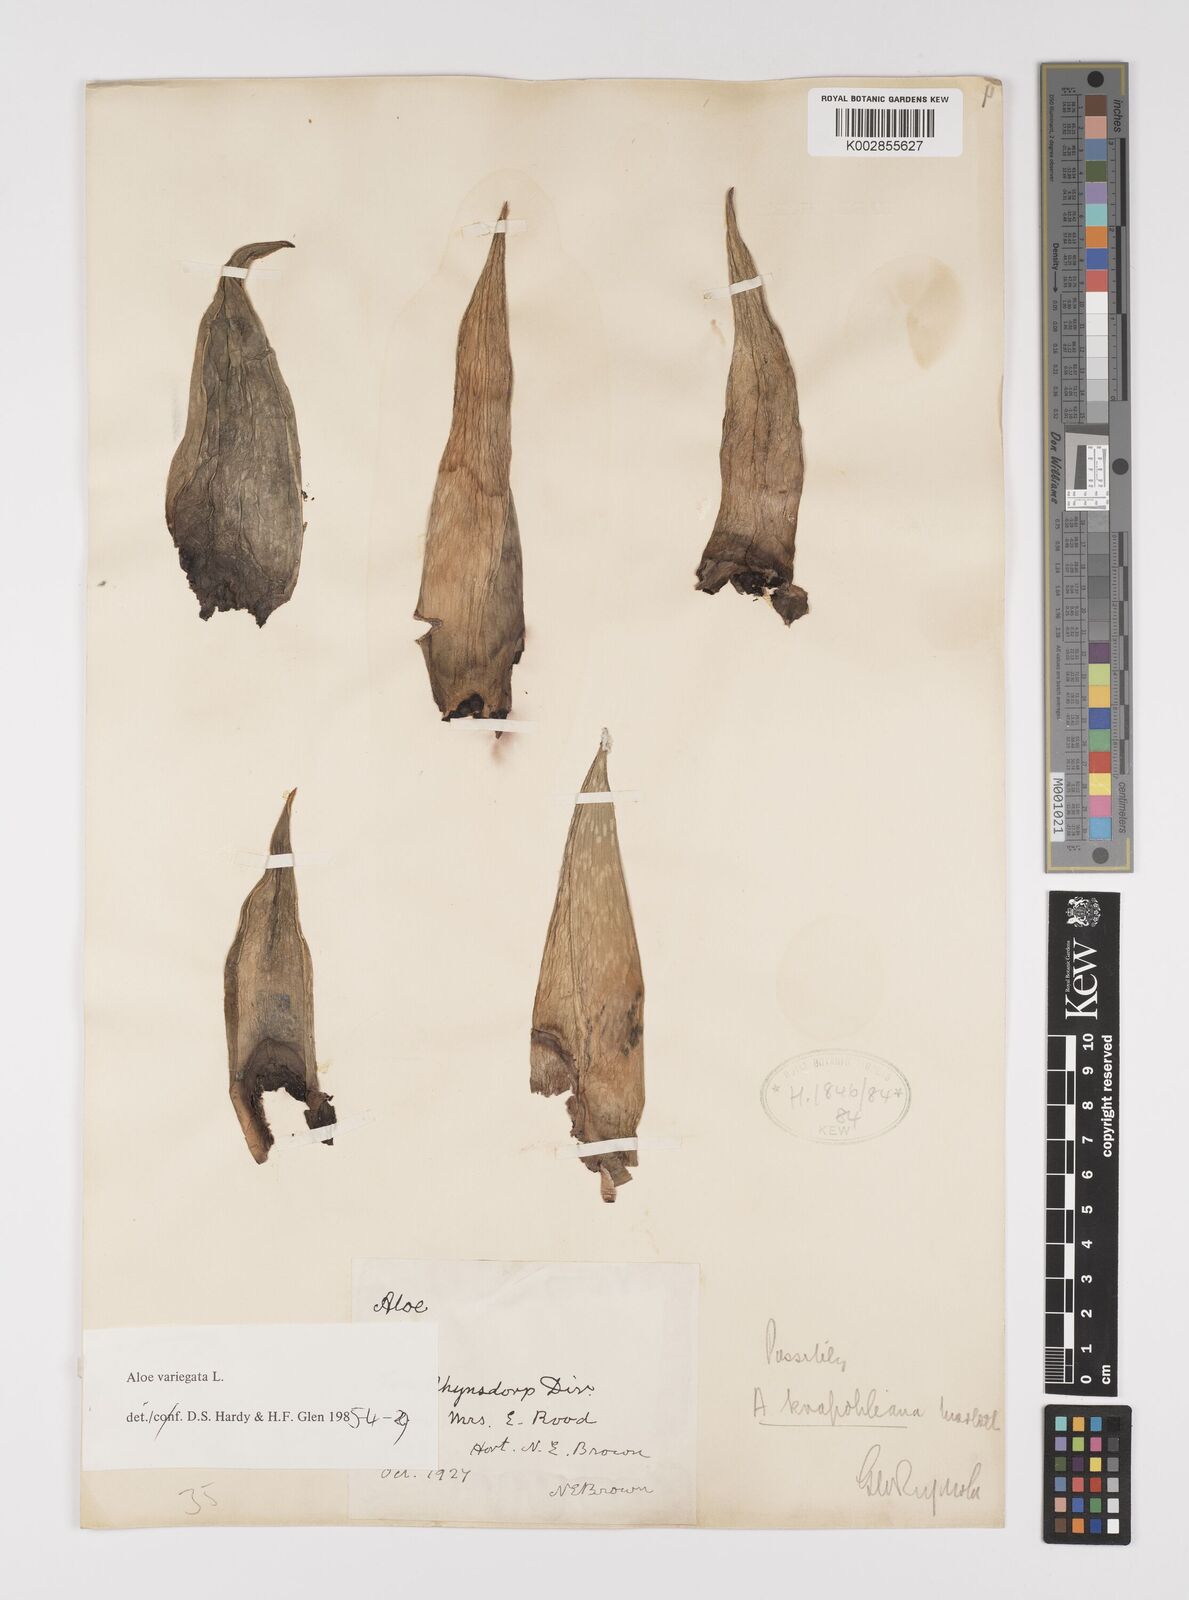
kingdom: Plantae
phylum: Tracheophyta
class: Liliopsida
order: Asparagales
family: Asphodelaceae
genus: Gonialoe
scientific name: Gonialoe variegata
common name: Aloe variegata
